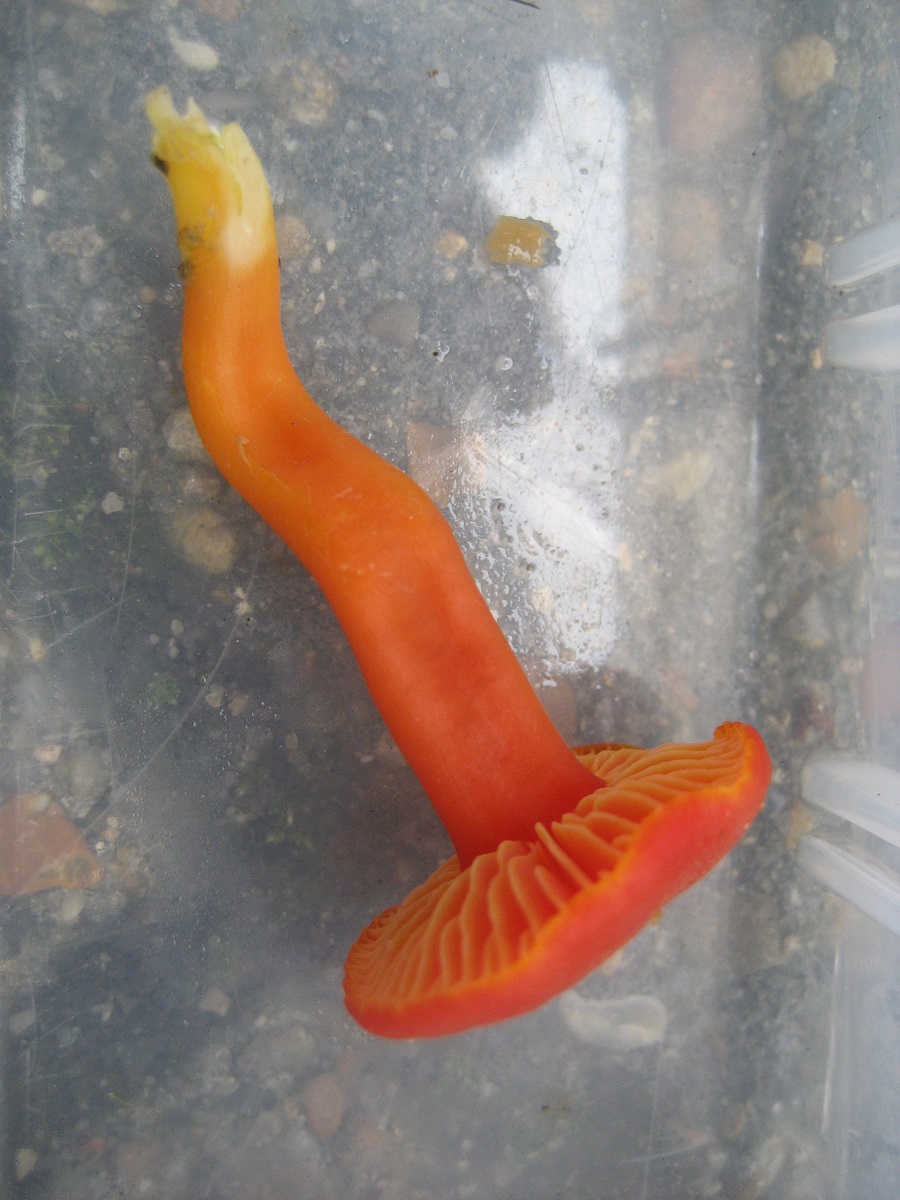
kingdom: Fungi
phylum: Basidiomycota
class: Agaricomycetes
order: Agaricales
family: Hygrophoraceae
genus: Hygrocybe
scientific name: Hygrocybe miniata
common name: mønje-vokshat
